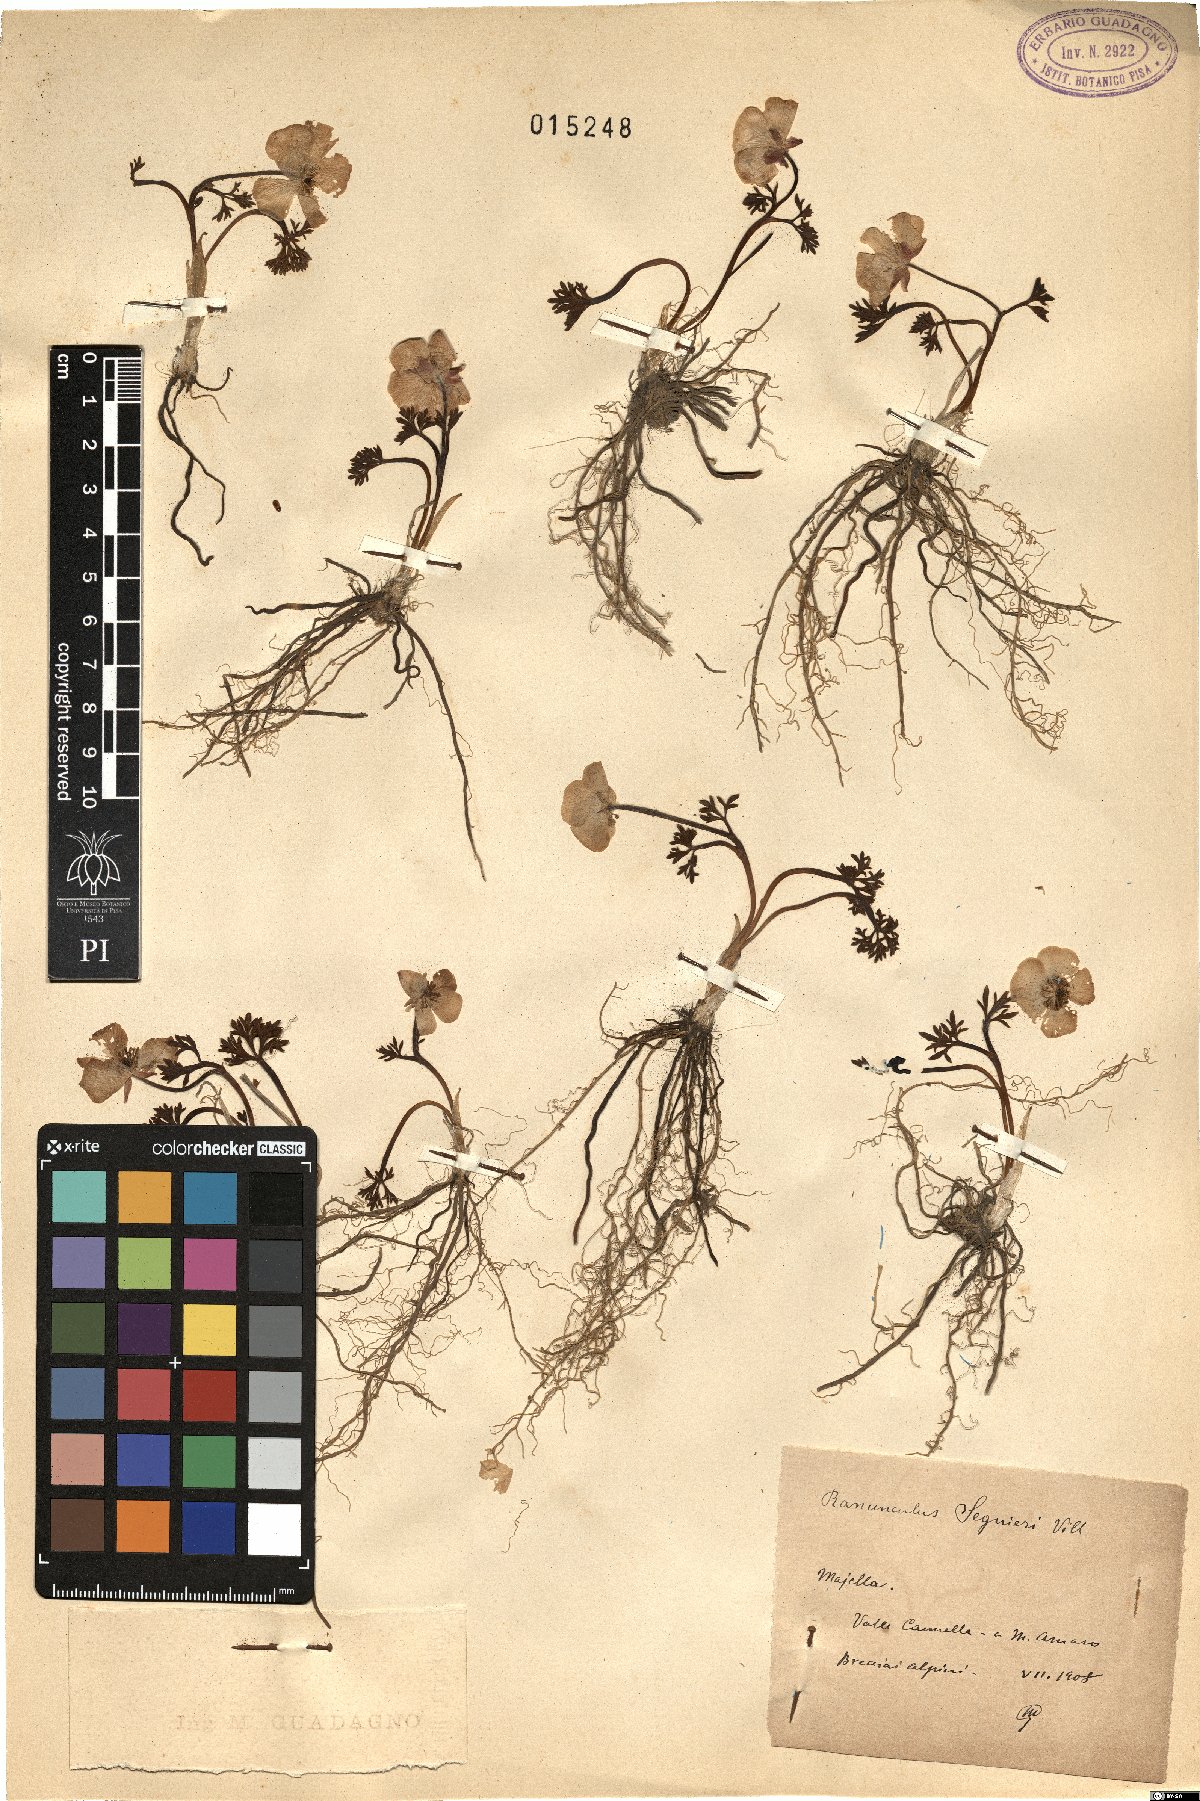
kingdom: Plantae
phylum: Tracheophyta
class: Magnoliopsida
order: Ranunculales
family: Ranunculaceae
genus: Ranunculus
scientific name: Ranunculus seguieri
